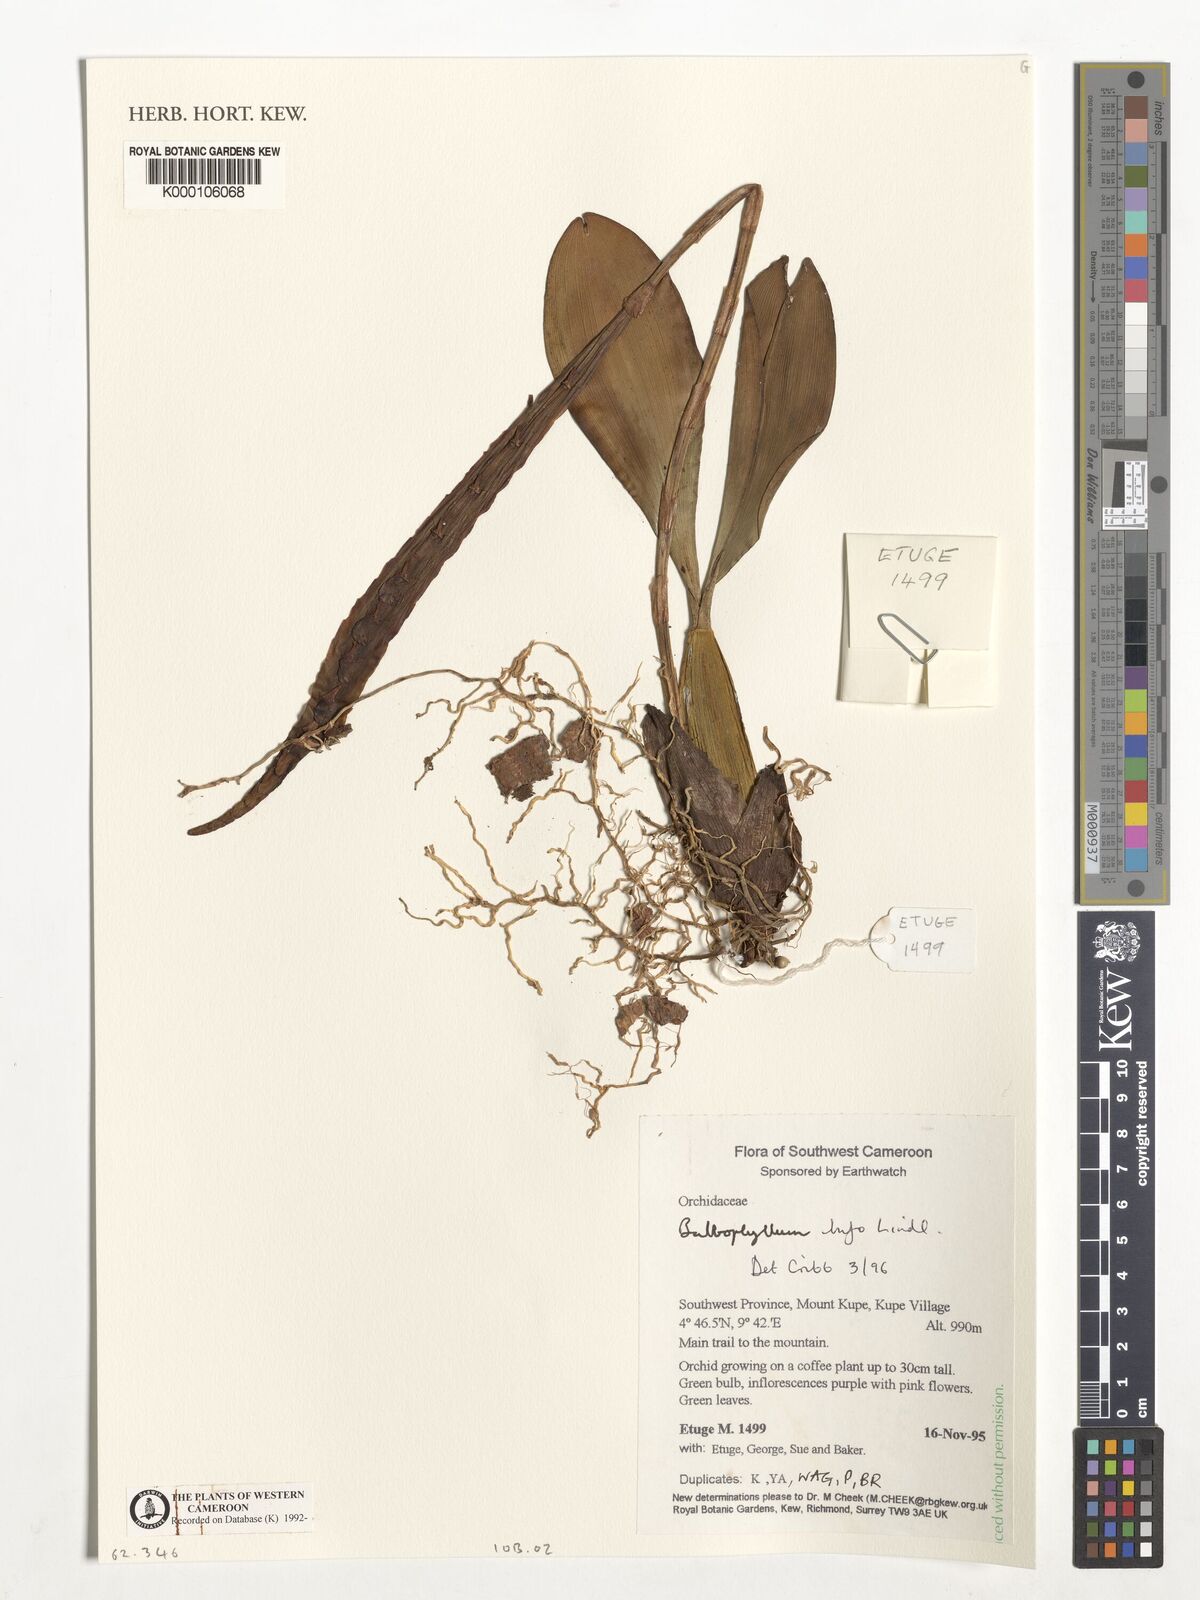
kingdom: Plantae
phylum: Tracheophyta
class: Liliopsida
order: Asparagales
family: Orchidaceae
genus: Bulbophyllum
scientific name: Bulbophyllum falcatum
